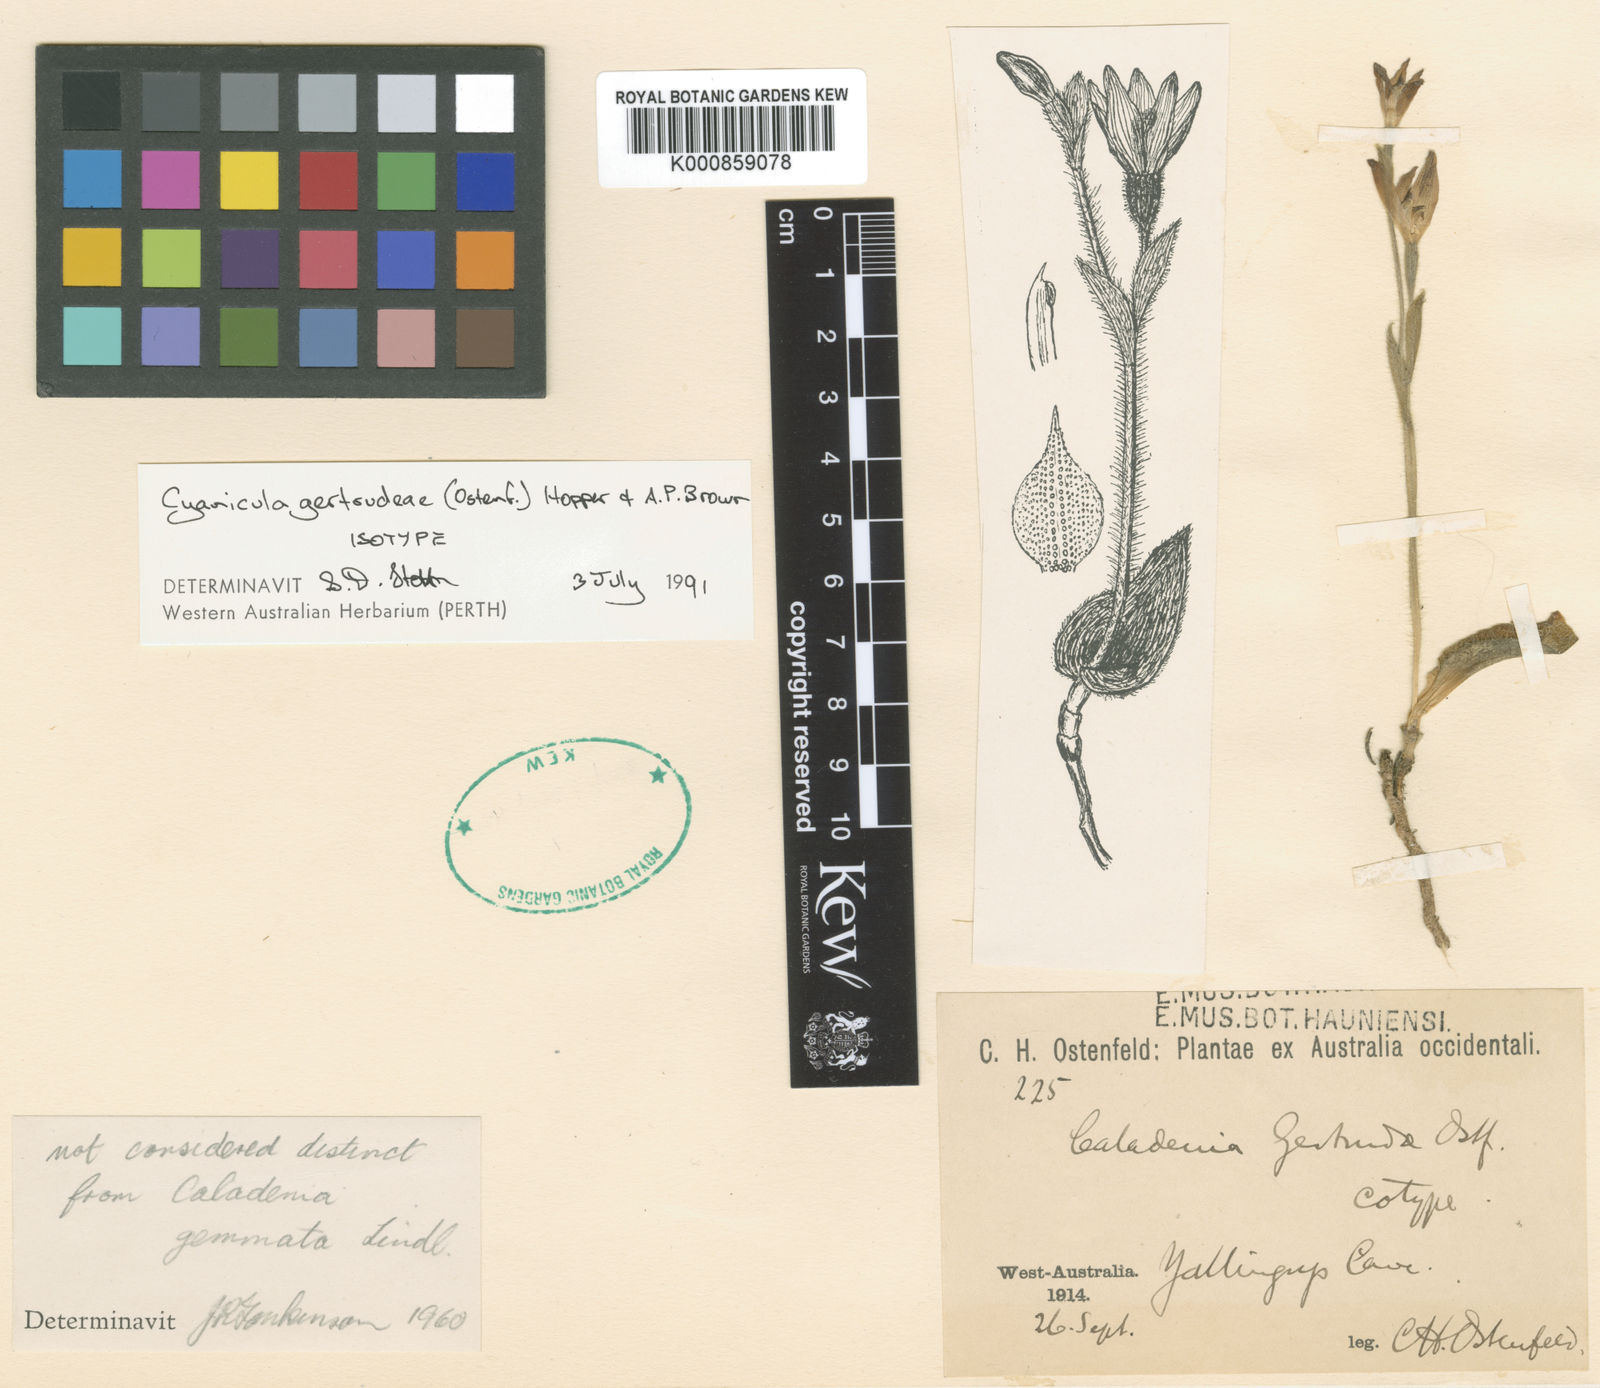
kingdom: Plantae
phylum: Tracheophyta
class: Liliopsida
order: Asparagales
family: Orchidaceae
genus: Caladenia
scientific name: Caladenia
